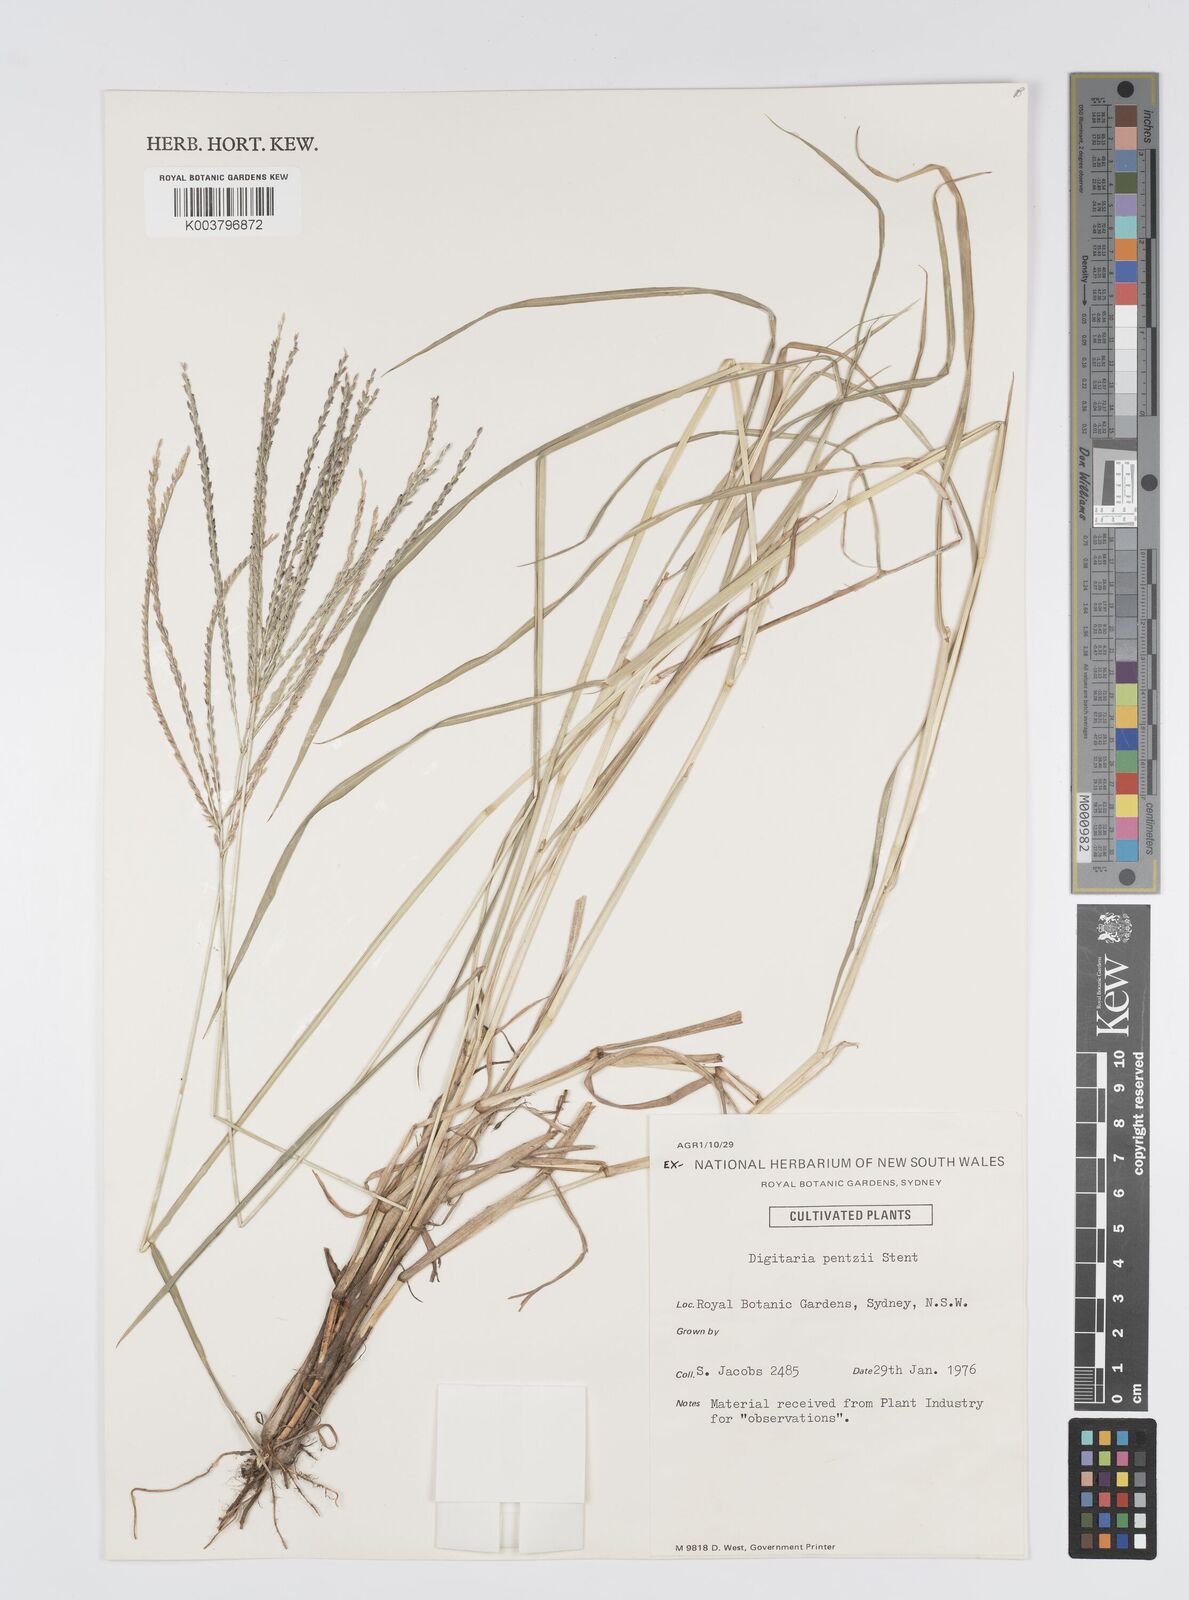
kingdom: Plantae
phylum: Tracheophyta
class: Liliopsida
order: Poales
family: Poaceae
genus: Digitaria
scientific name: Digitaria eriantha
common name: Digitgrass
